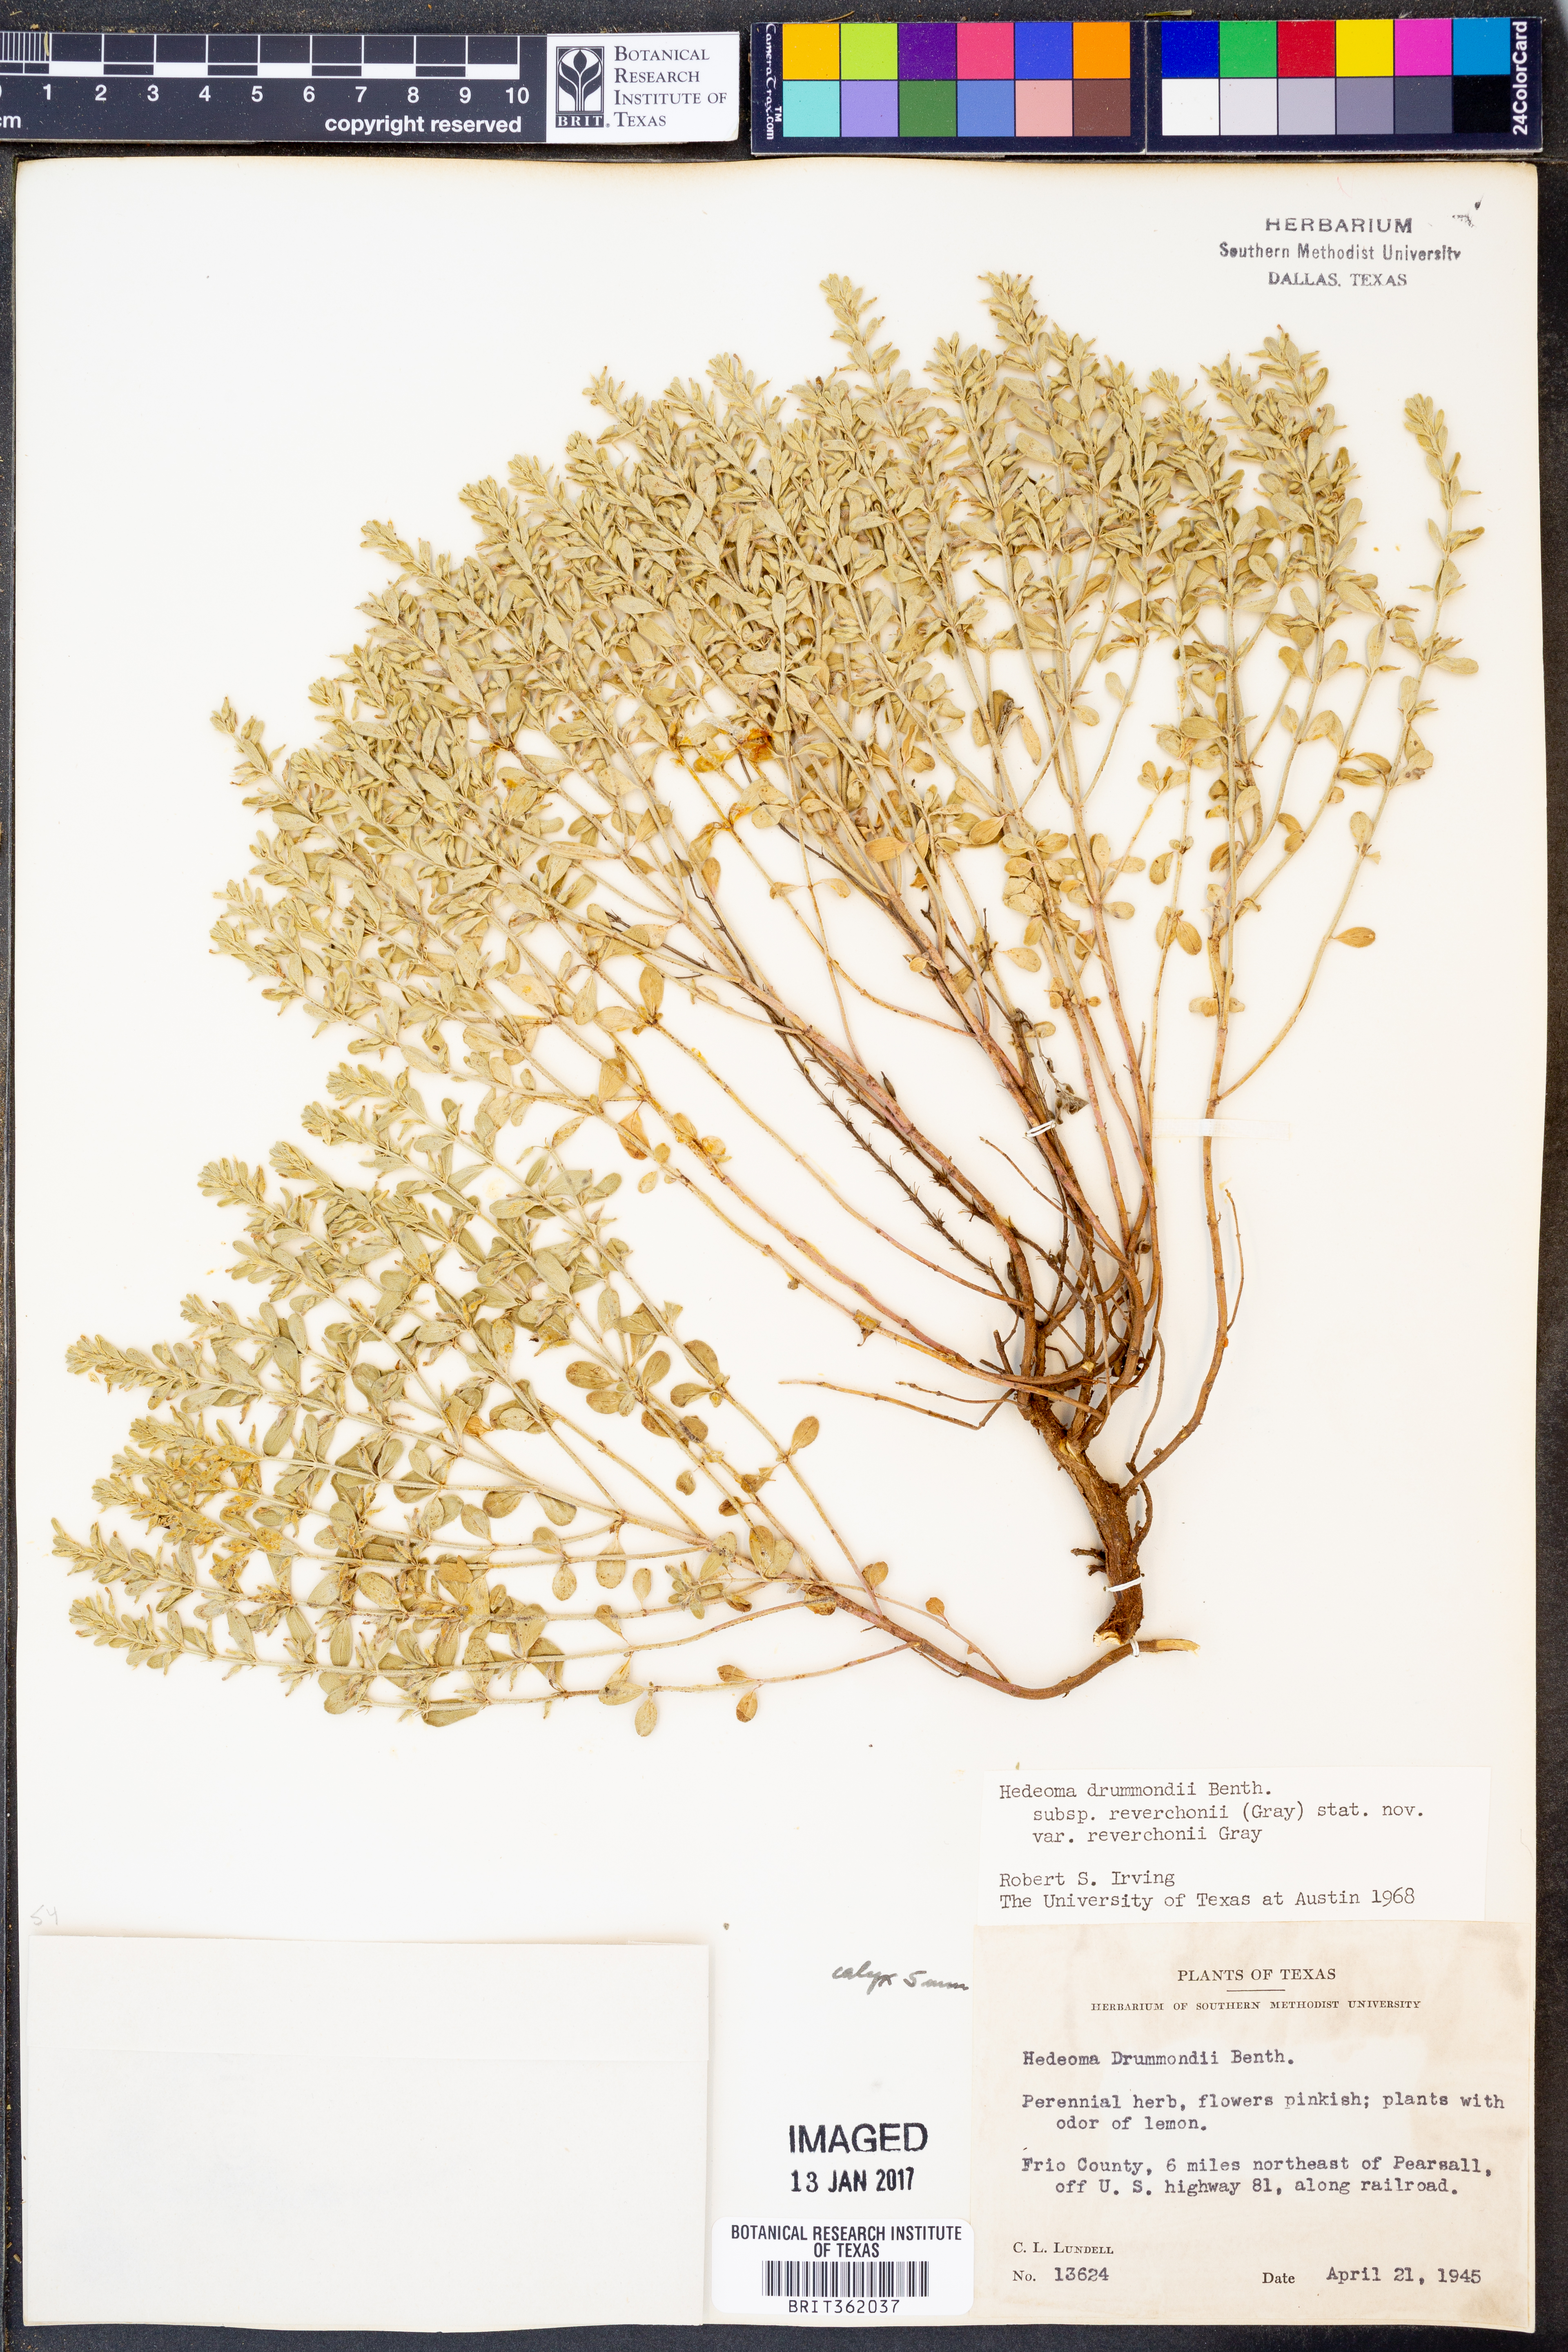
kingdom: Plantae
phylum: Tracheophyta
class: Magnoliopsida
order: Lamiales
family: Lamiaceae
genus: Hedeoma
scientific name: Hedeoma reverchonii
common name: Reverchon's false penny-royal
